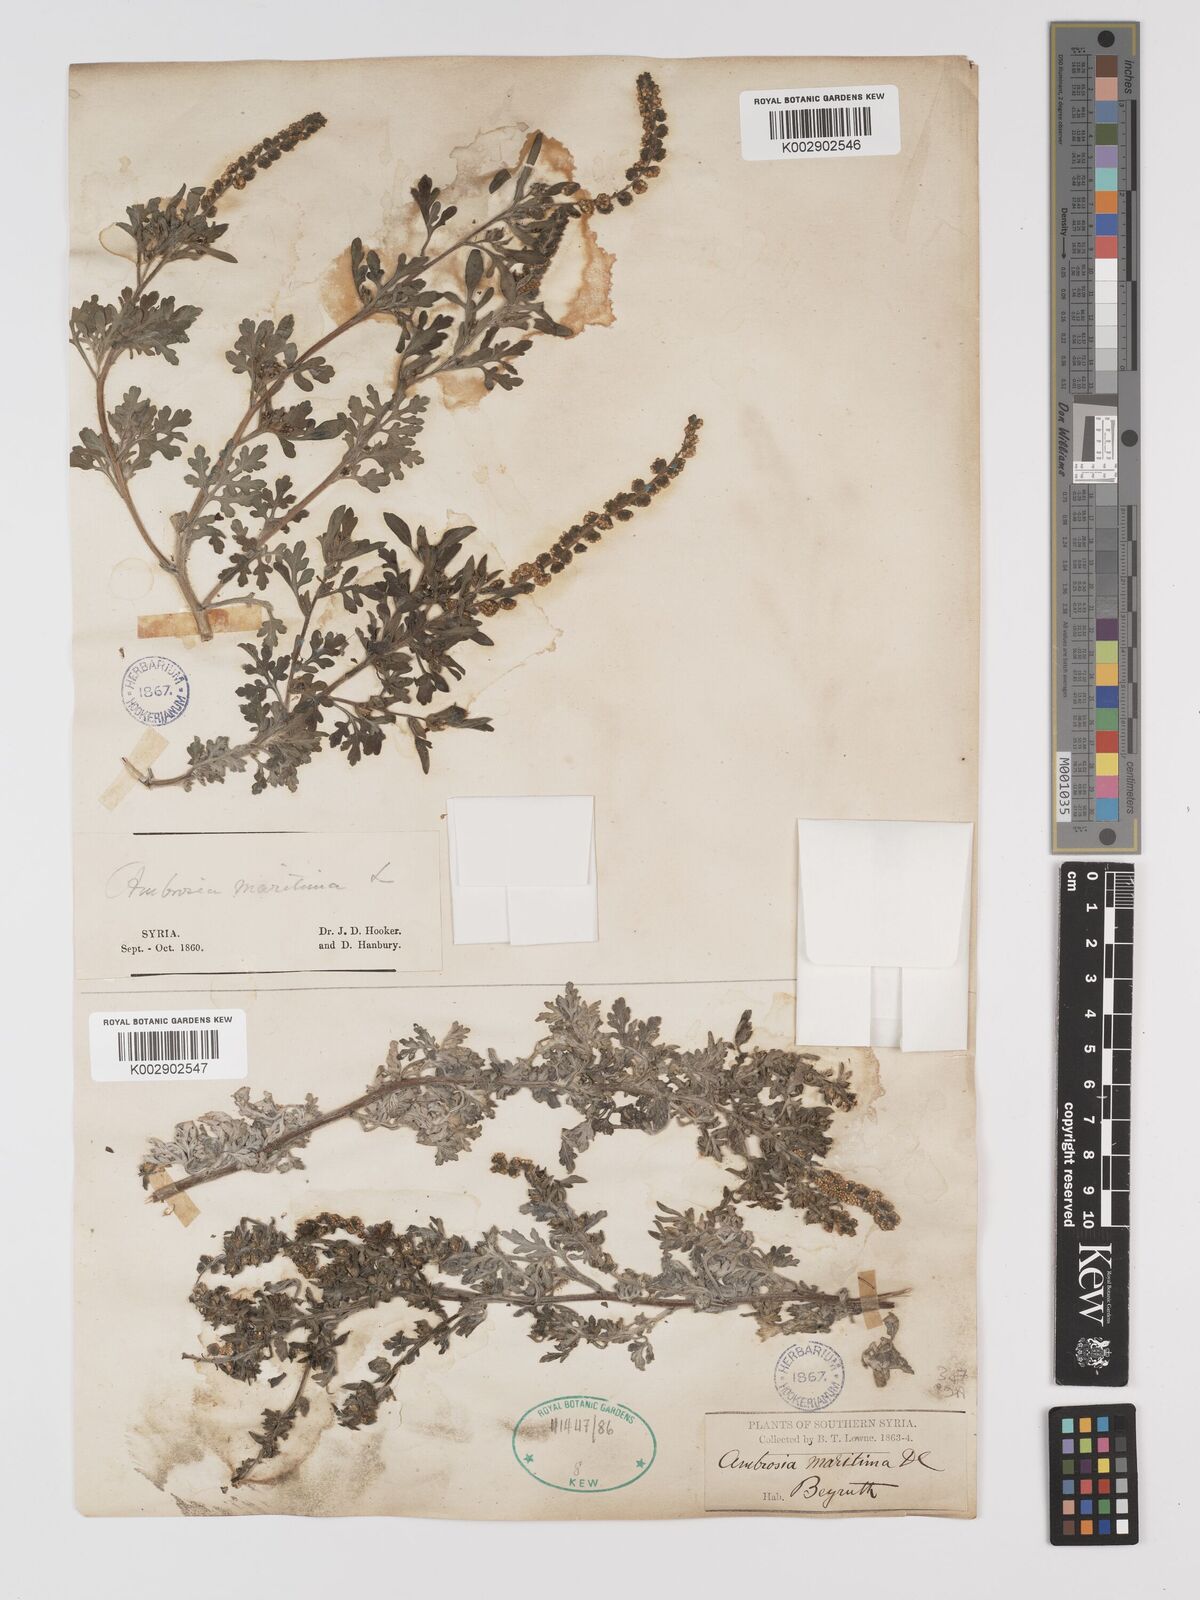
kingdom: Plantae
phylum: Tracheophyta
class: Magnoliopsida
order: Asterales
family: Asteraceae
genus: Ambrosia
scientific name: Ambrosia maritima
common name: Sea ambrosia
